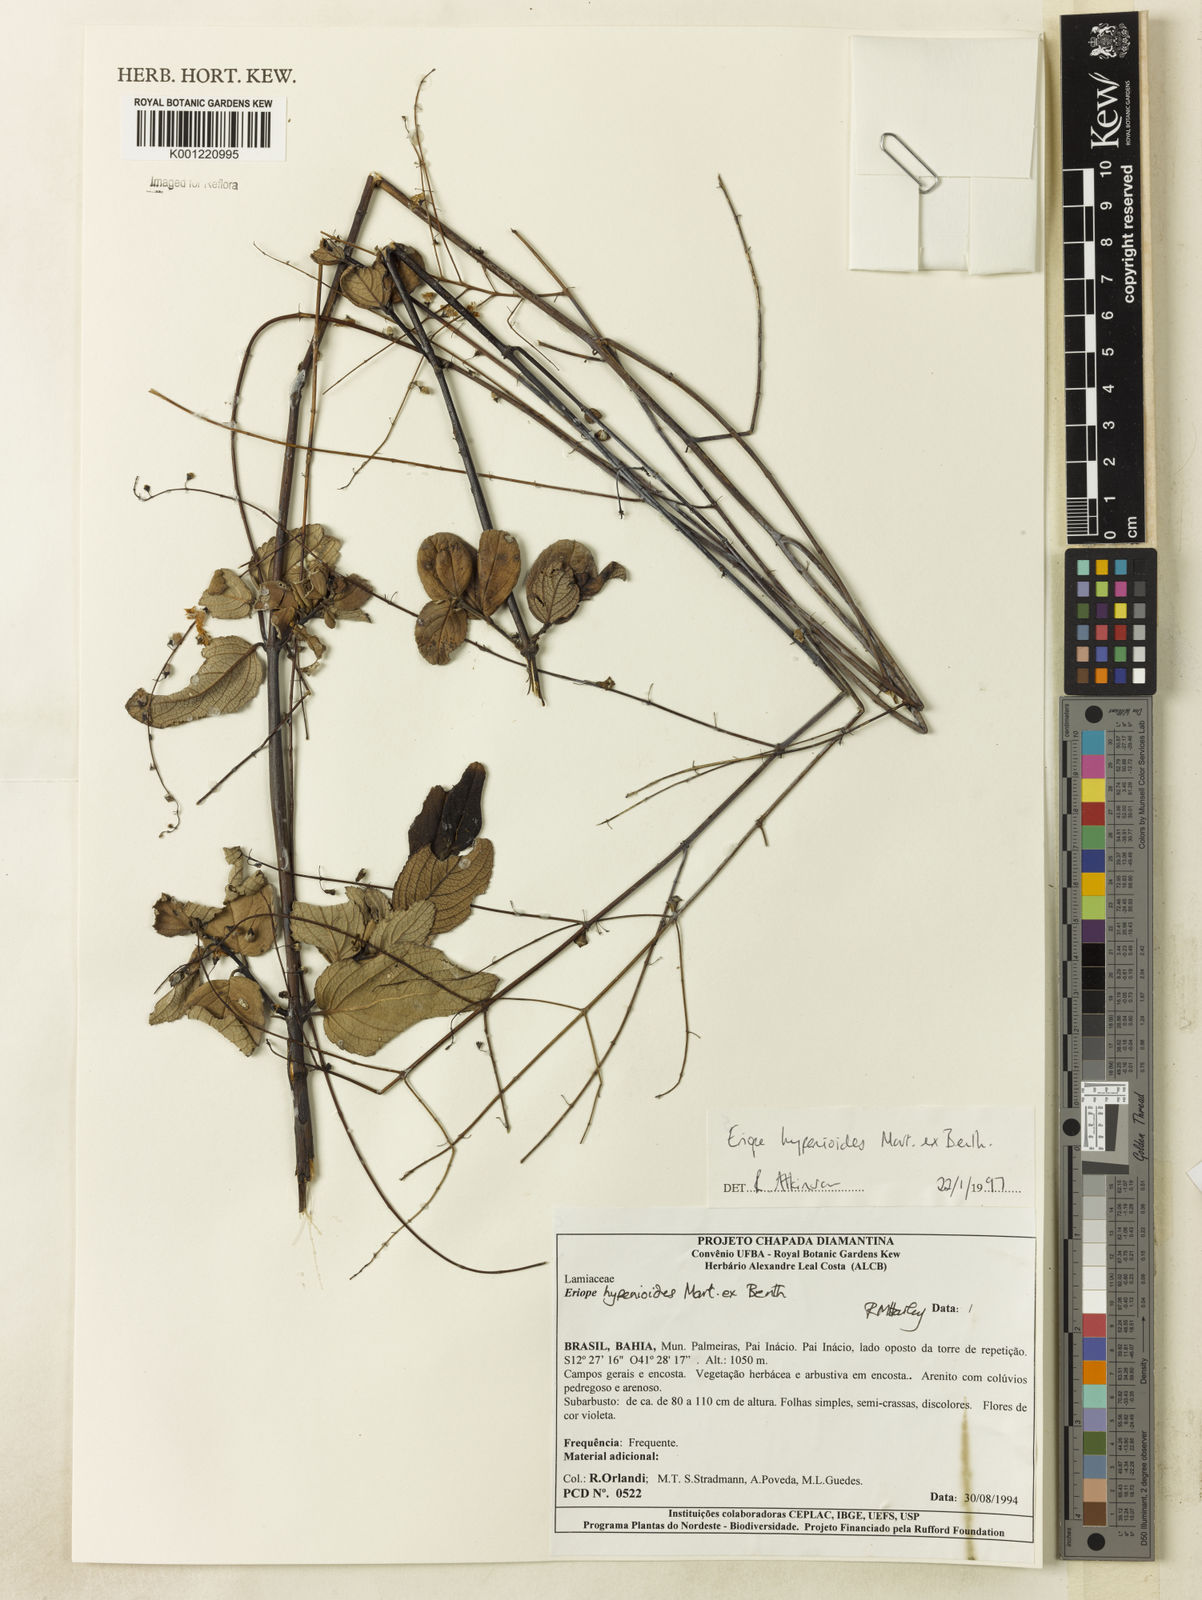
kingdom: Plantae
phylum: Tracheophyta
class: Magnoliopsida
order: Lamiales
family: Lamiaceae
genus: Eriope
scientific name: Eriope hypenioides
